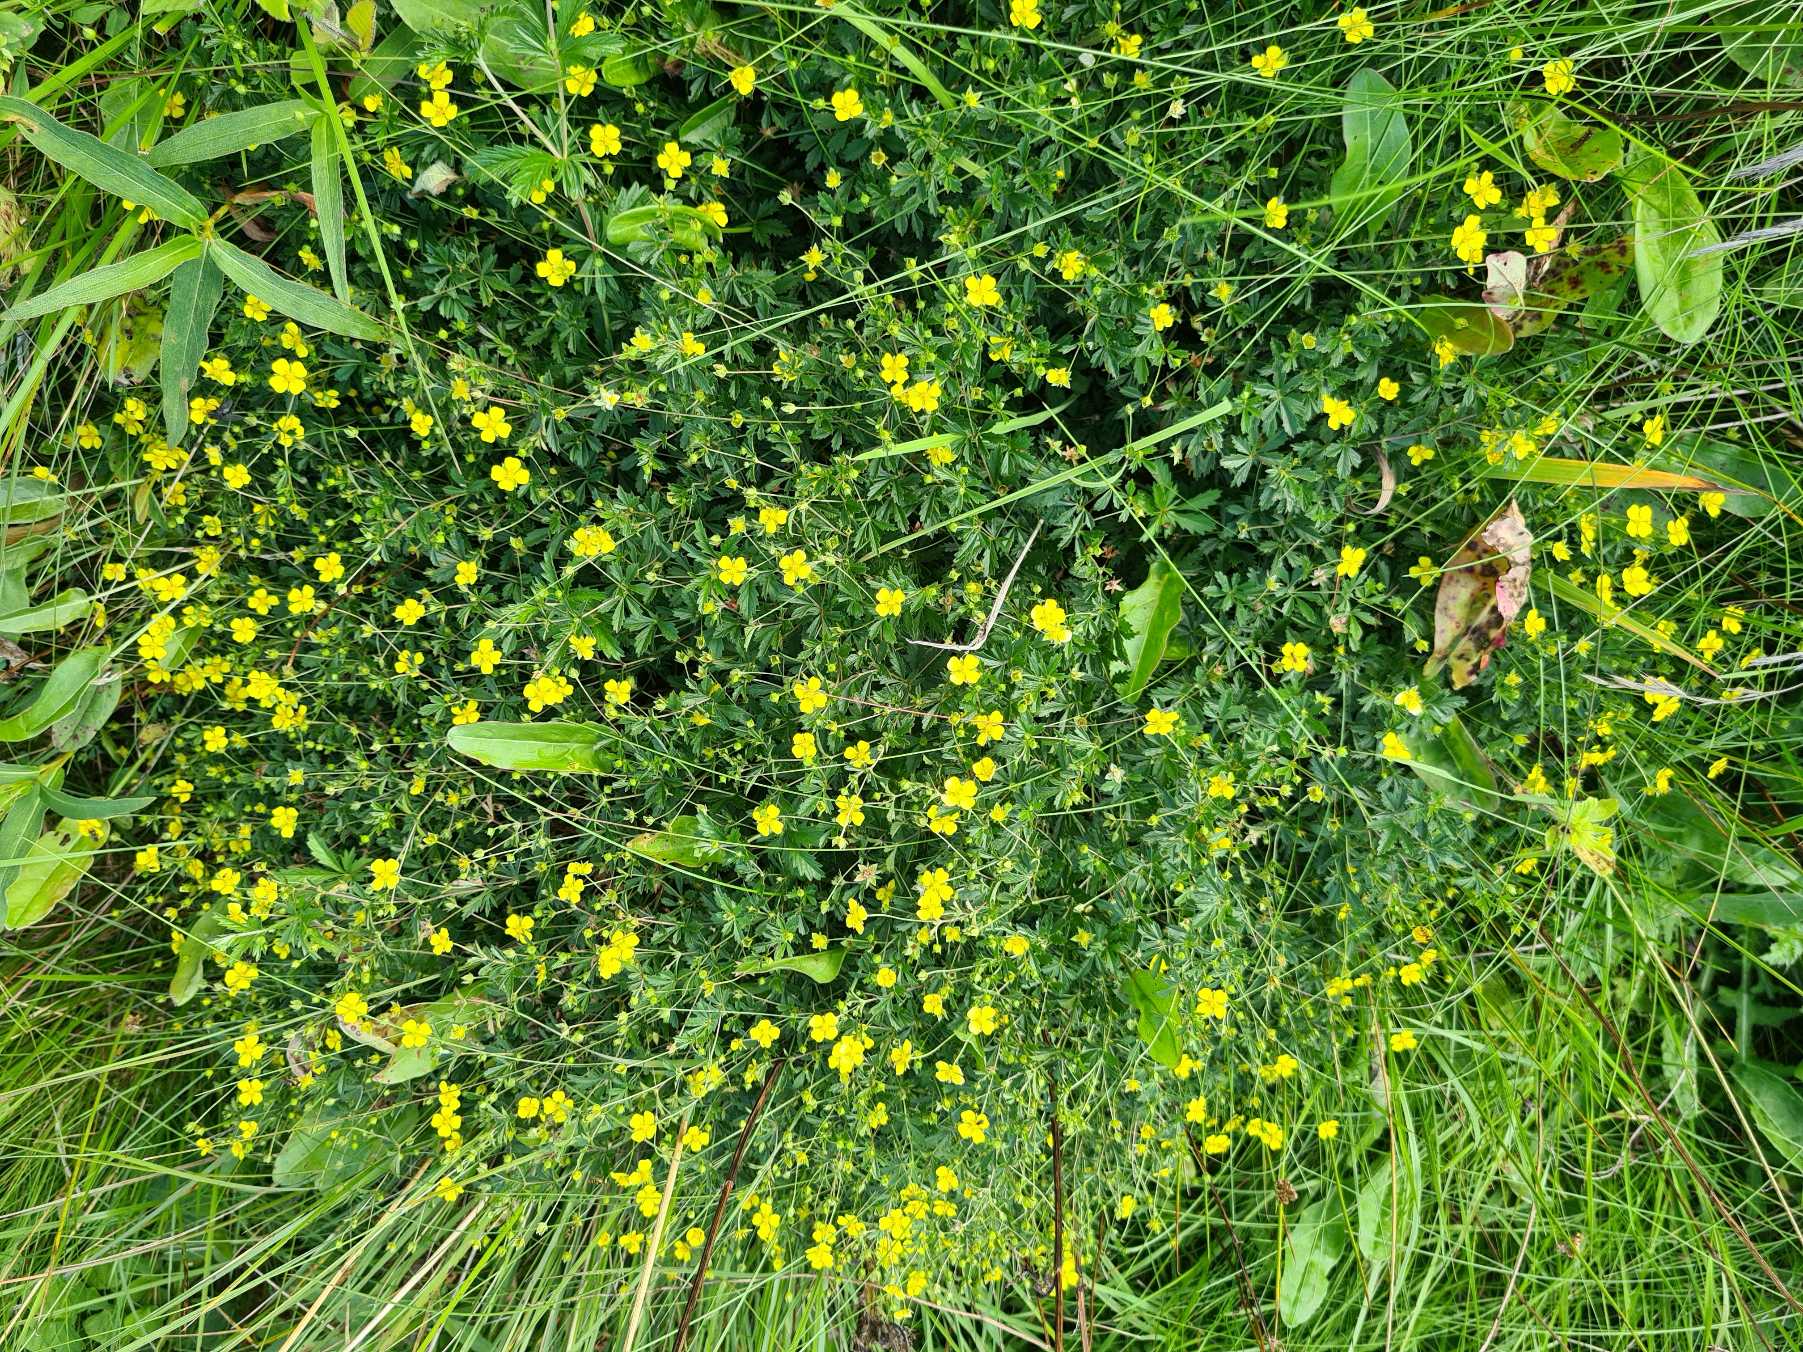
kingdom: Plantae
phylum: Tracheophyta
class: Magnoliopsida
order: Rosales
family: Rosaceae
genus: Potentilla
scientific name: Potentilla erecta
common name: Tormentil
